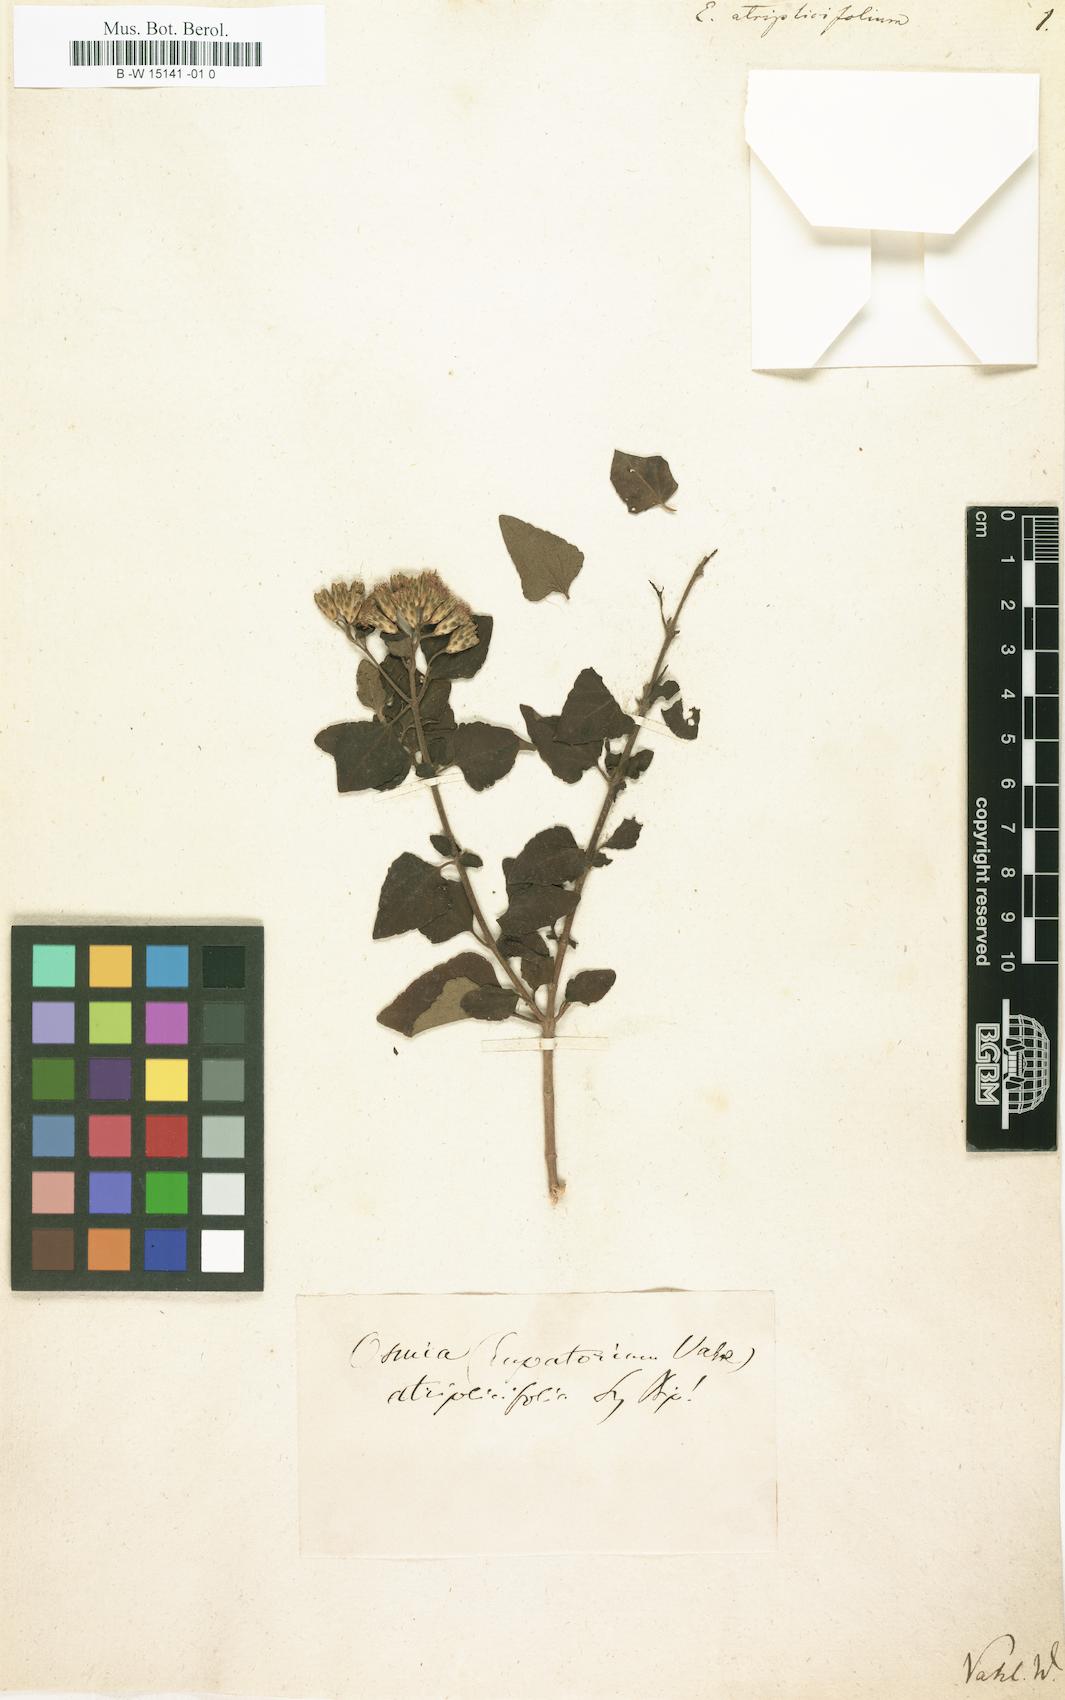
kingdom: Plantae
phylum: Tracheophyta
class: Magnoliopsida
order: Asterales
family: Asteraceae
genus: Chromolaena
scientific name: Chromolaena
